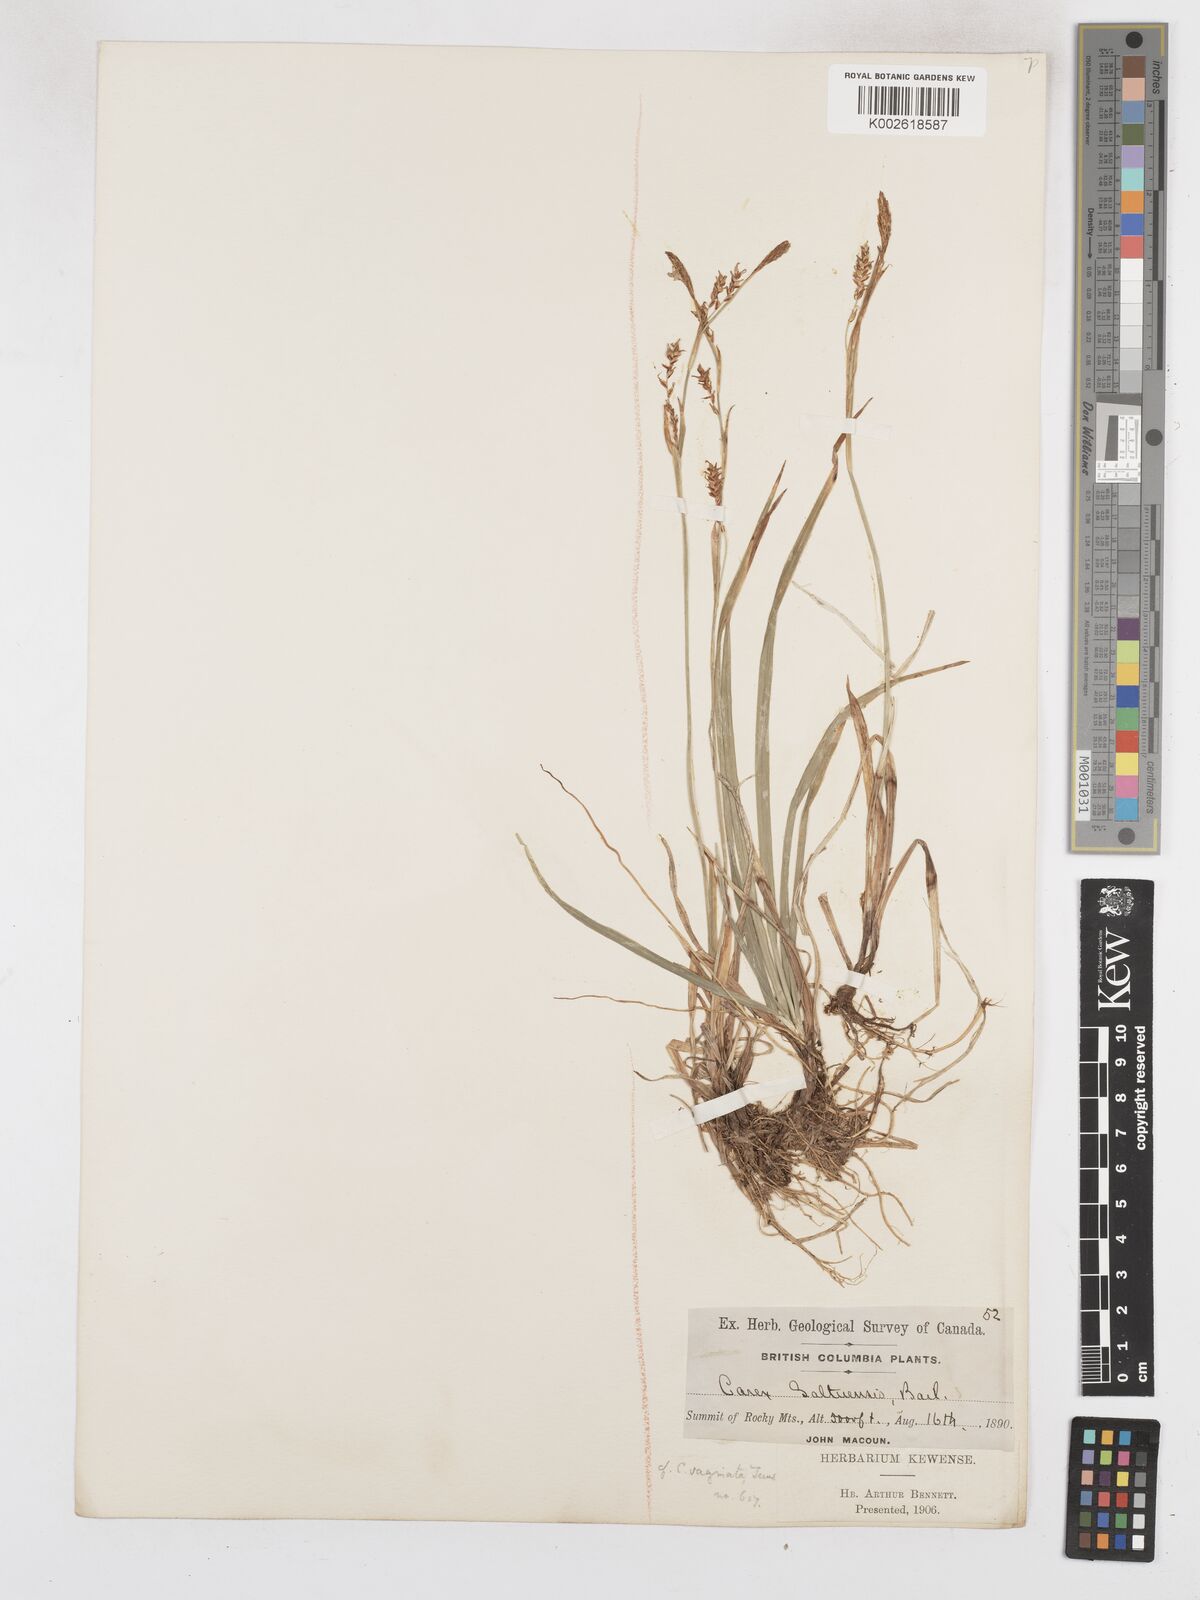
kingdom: Plantae
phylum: Tracheophyta
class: Liliopsida
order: Poales
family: Cyperaceae
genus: Carex
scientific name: Carex vaginata
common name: Sheathed sedge
